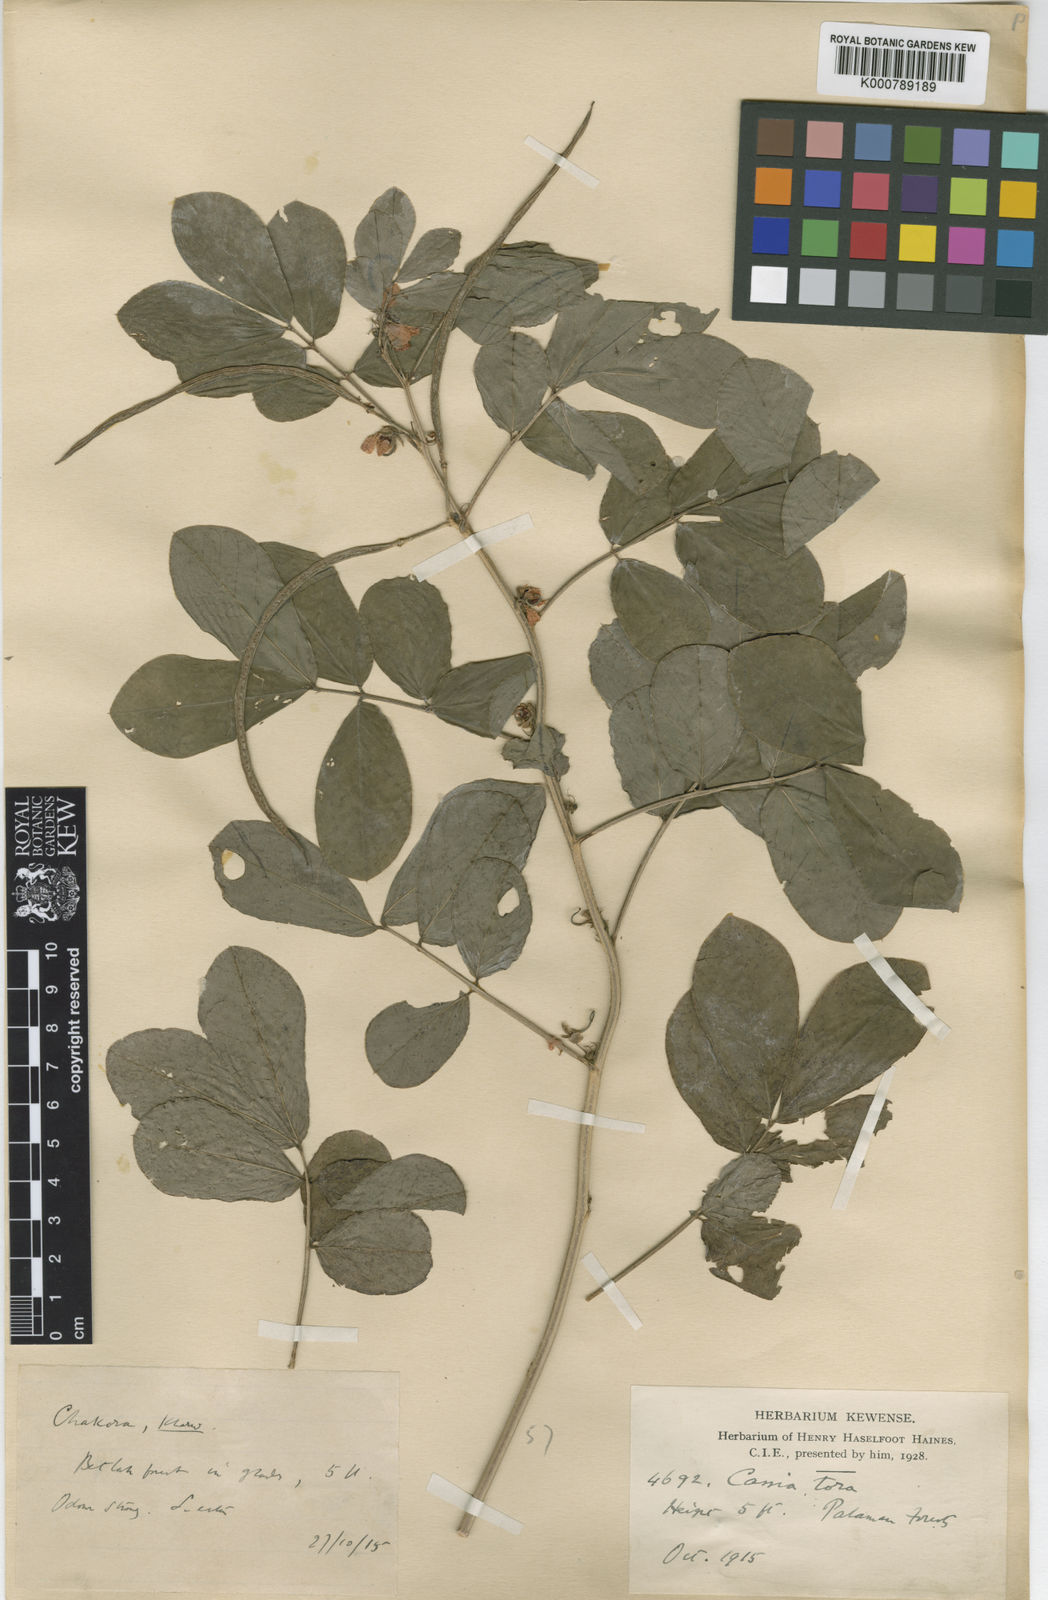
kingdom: Plantae
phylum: Tracheophyta
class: Magnoliopsida
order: Fabales
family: Fabaceae
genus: Senna
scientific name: Senna tora
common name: Sickle senna
